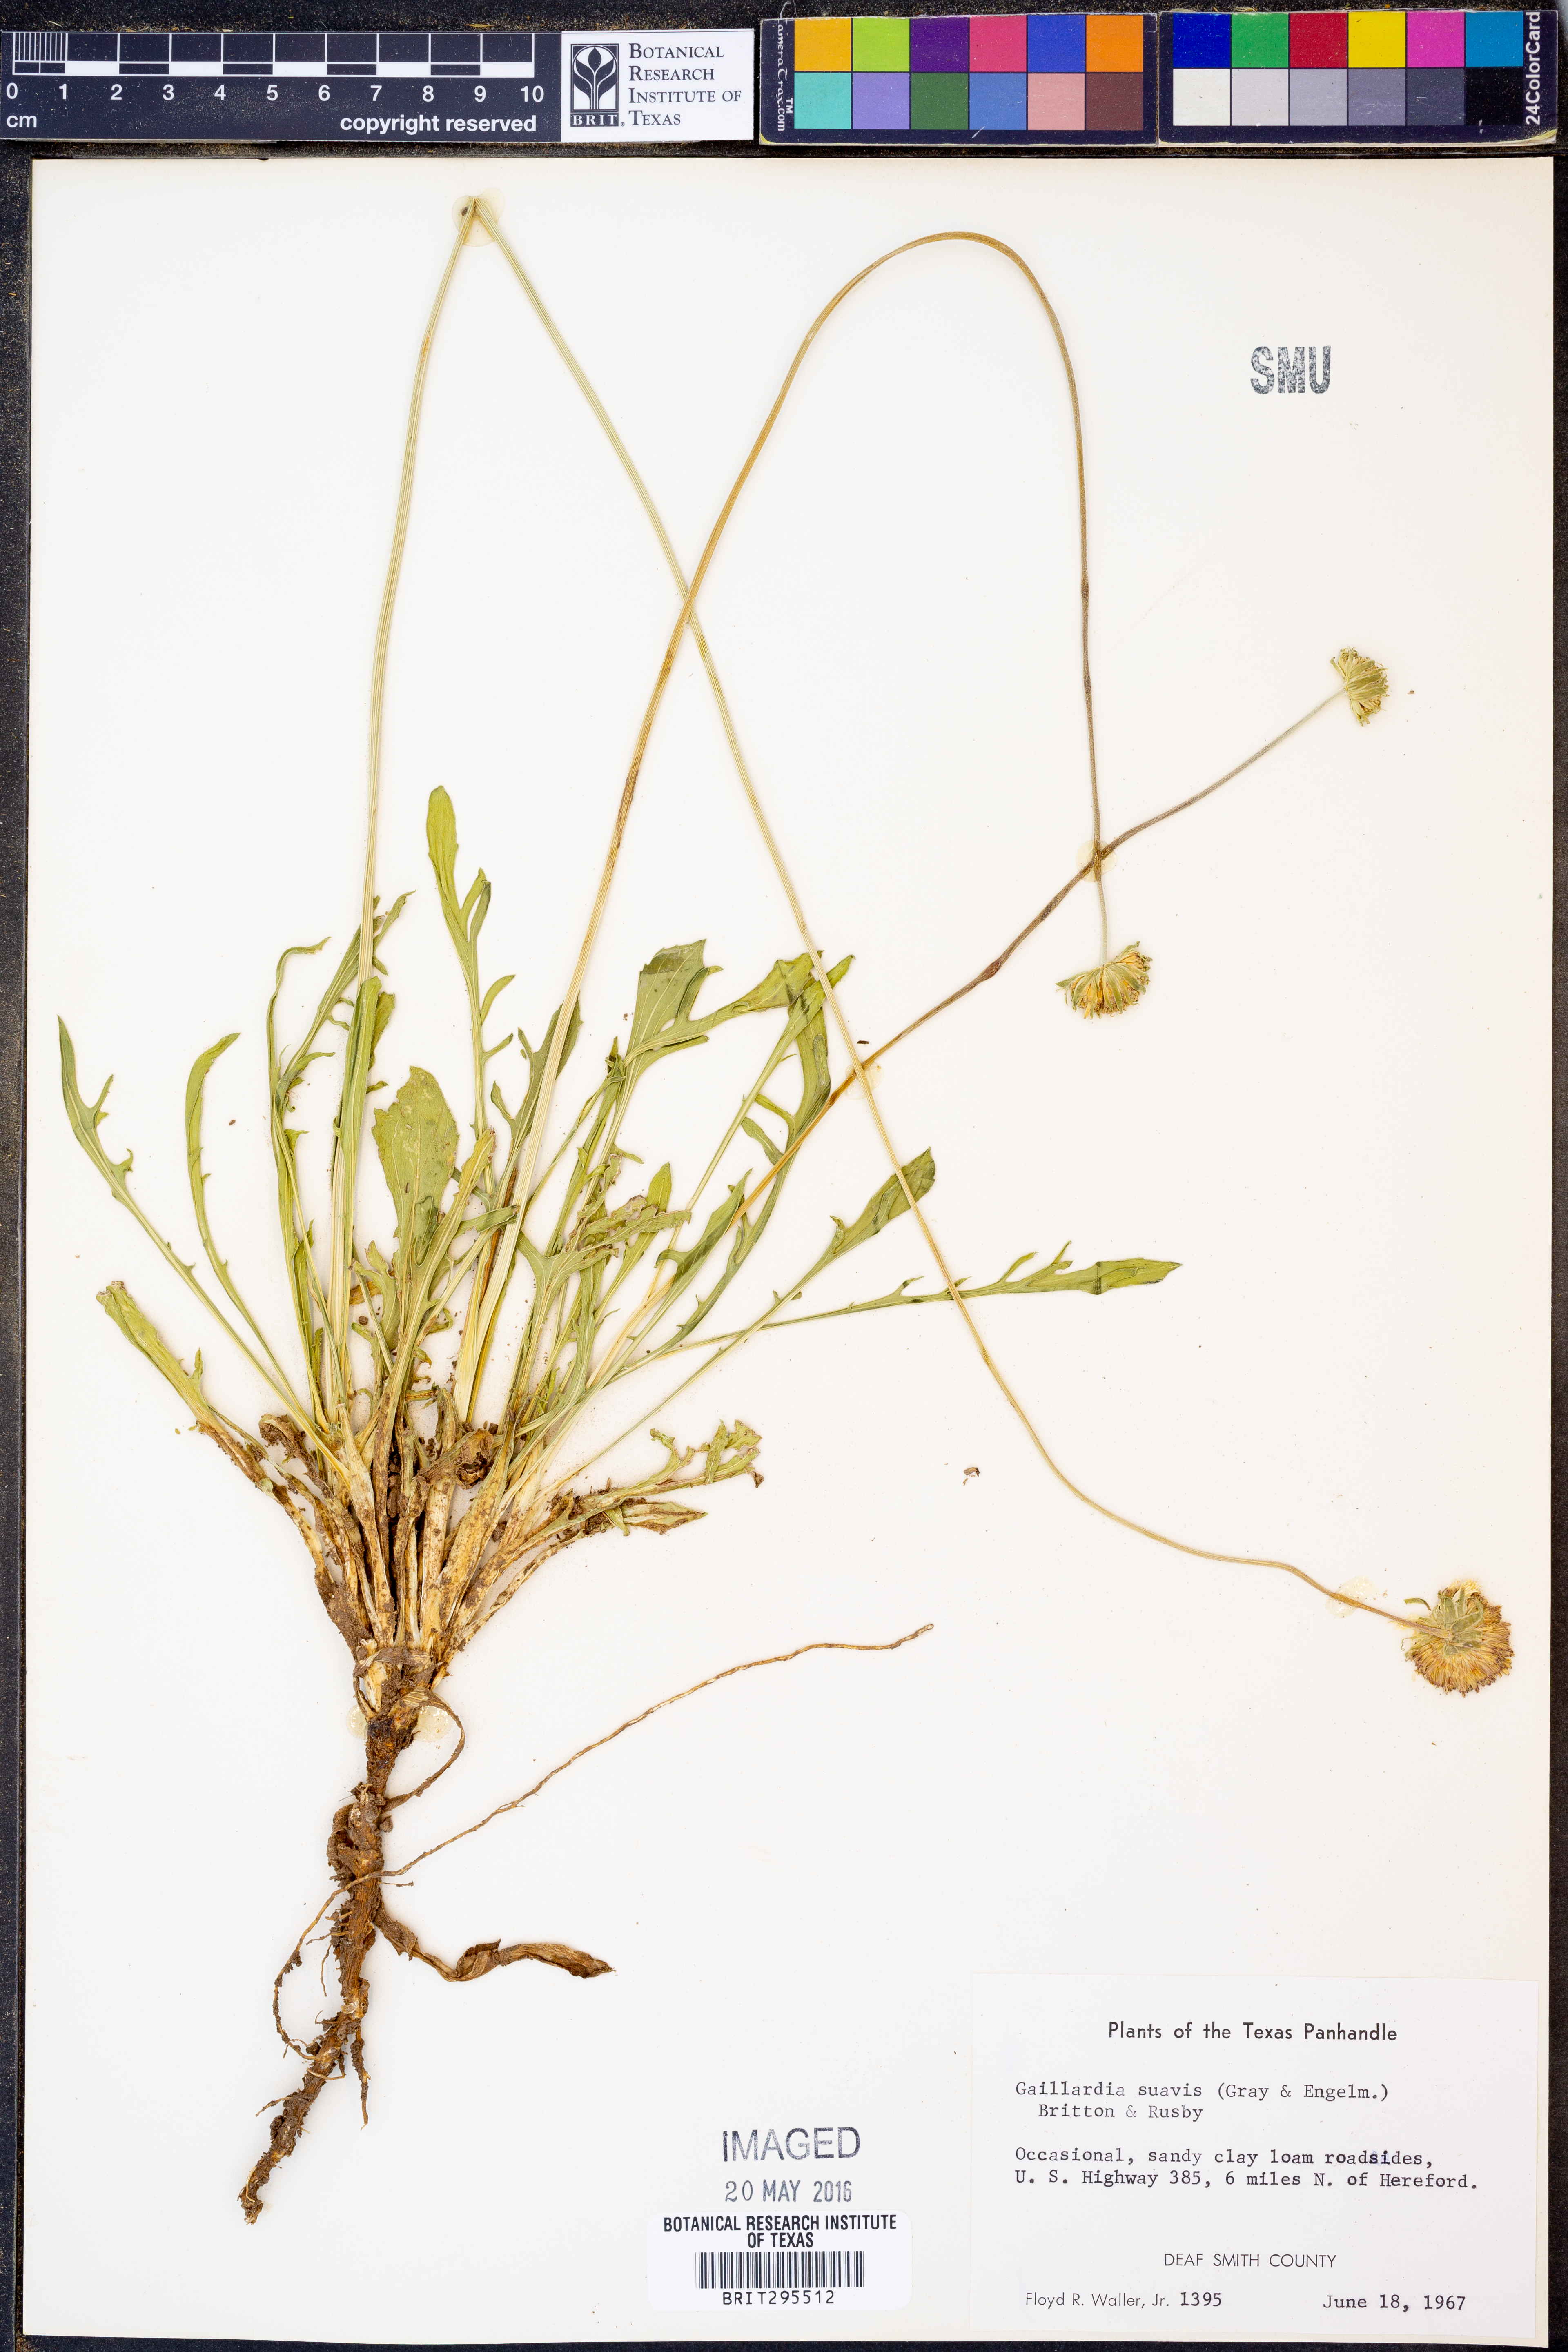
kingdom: Plantae
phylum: Tracheophyta
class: Magnoliopsida
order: Asterales
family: Asteraceae
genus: Gaillardia
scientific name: Gaillardia suavis
